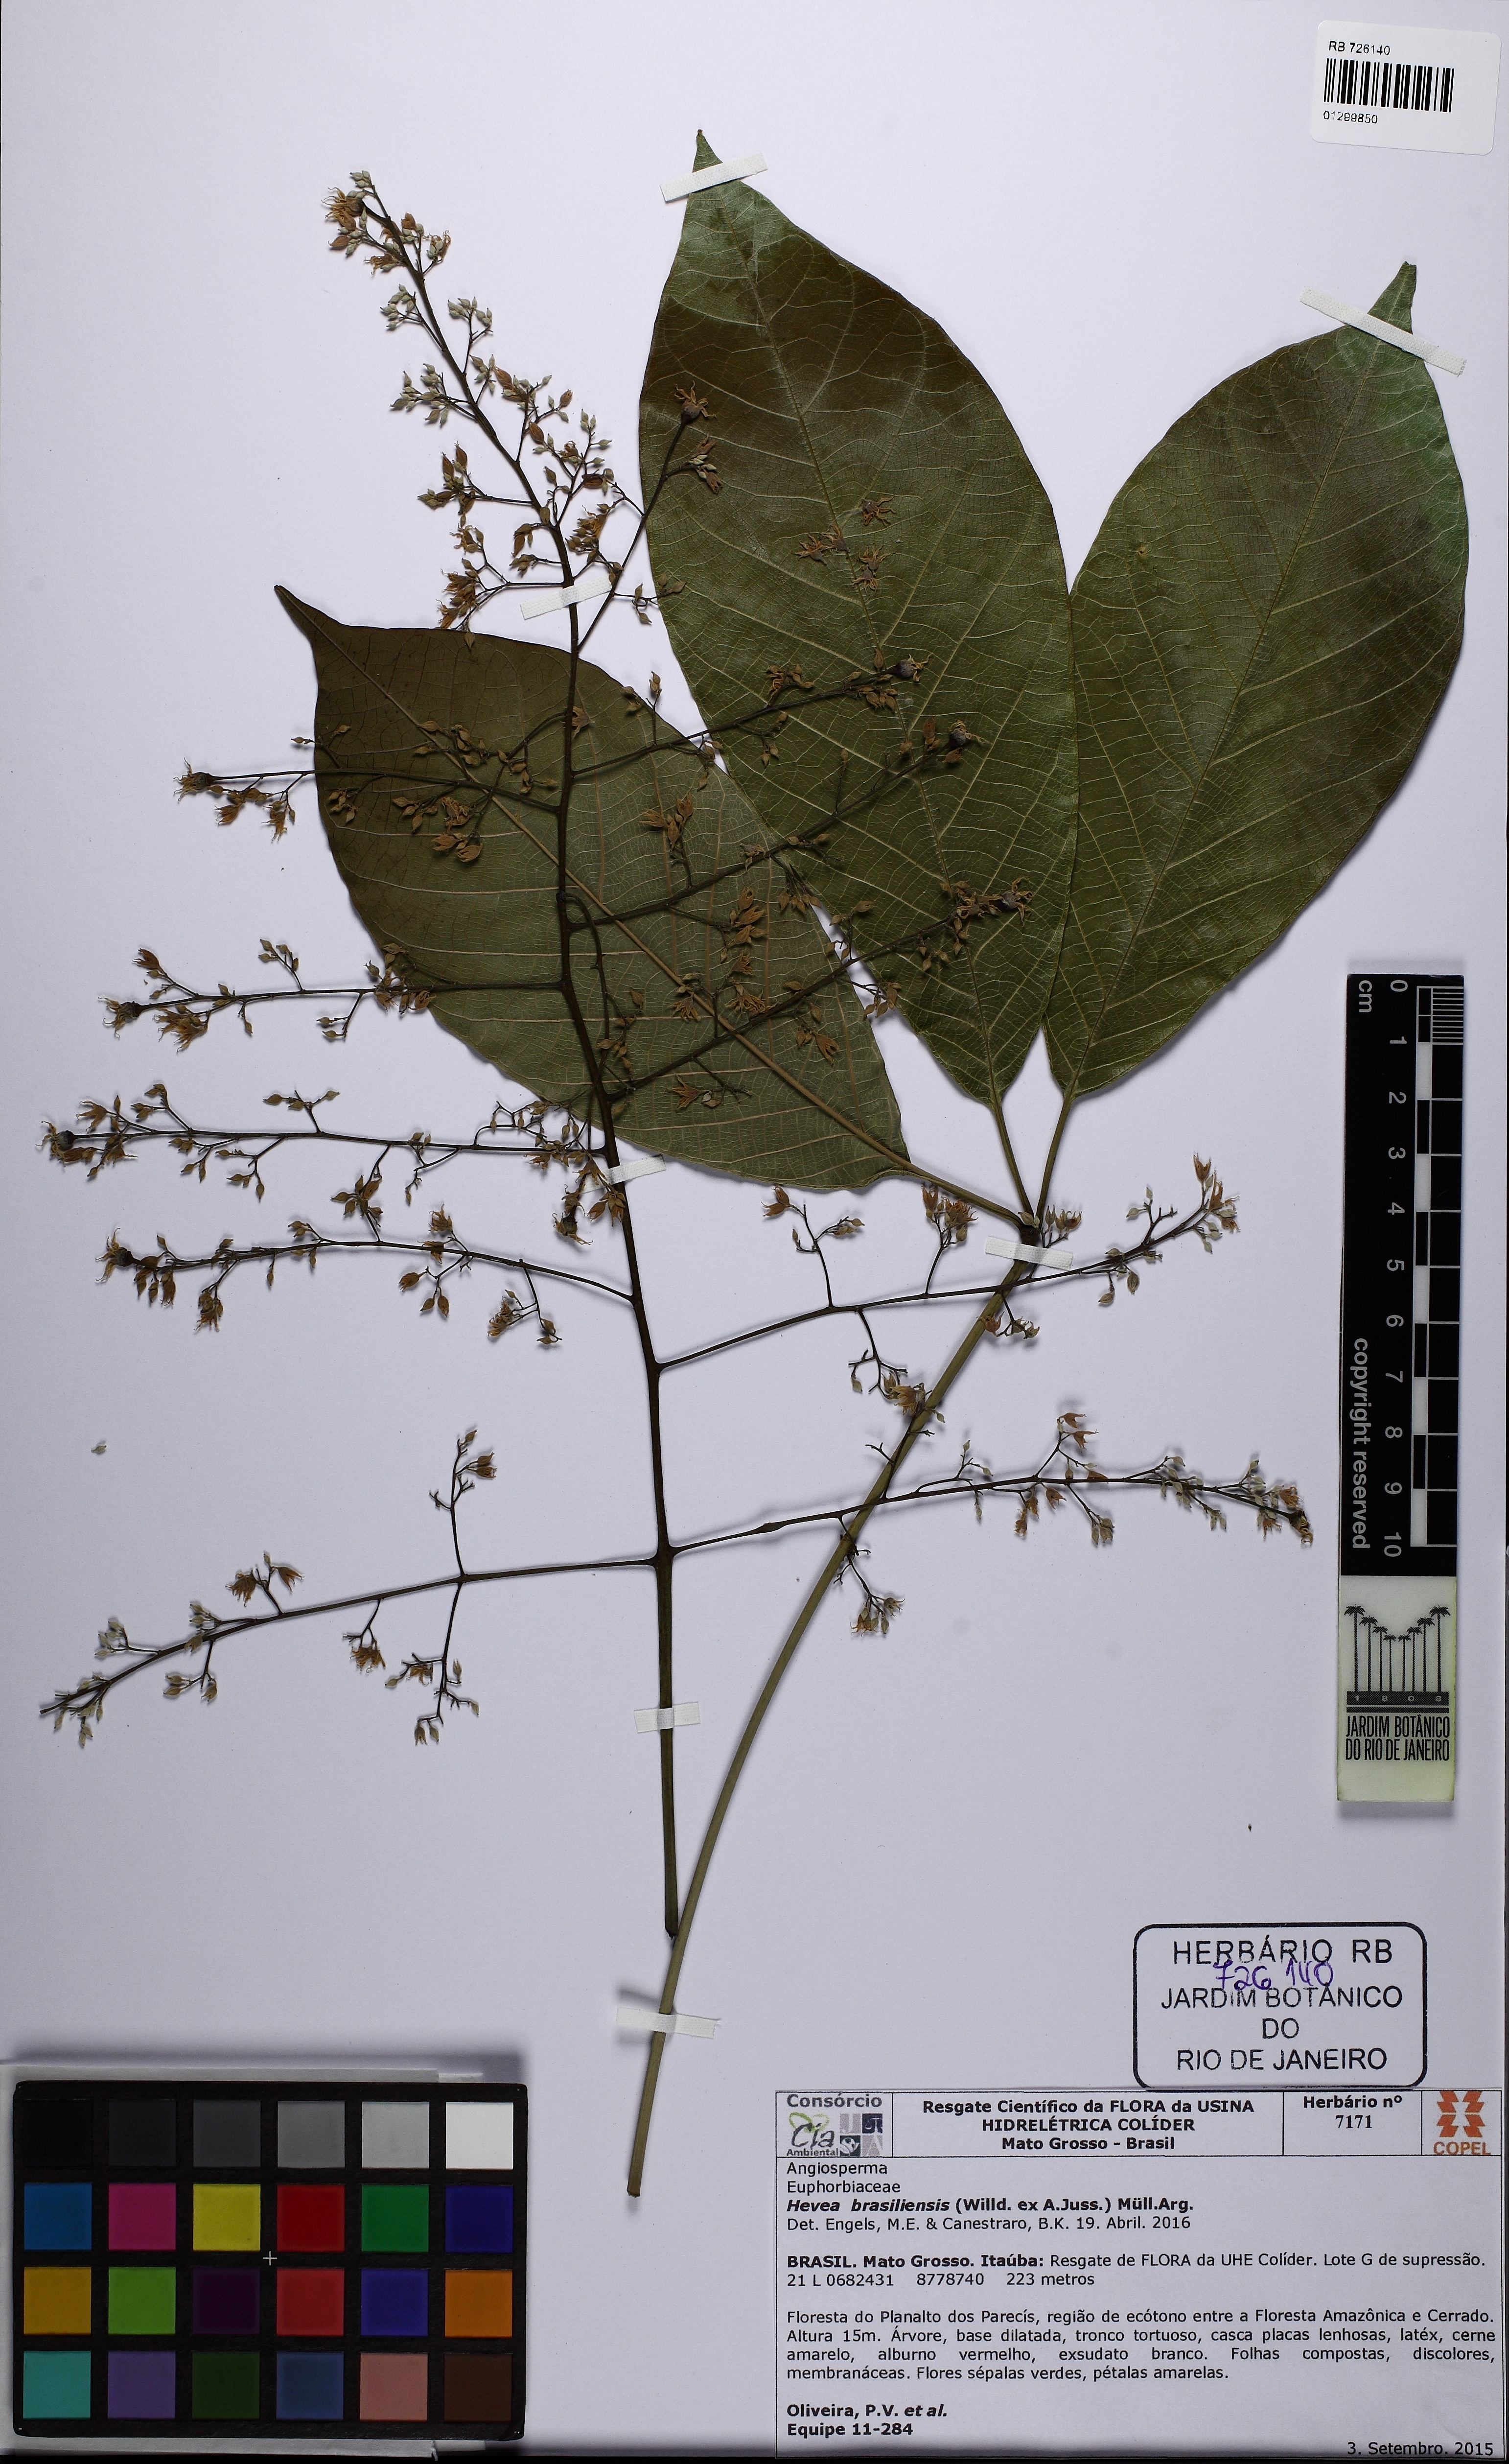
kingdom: Plantae
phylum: Tracheophyta
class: Magnoliopsida
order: Malpighiales
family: Euphorbiaceae
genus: Hevea
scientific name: Hevea brasiliensis
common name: Natural rubber
